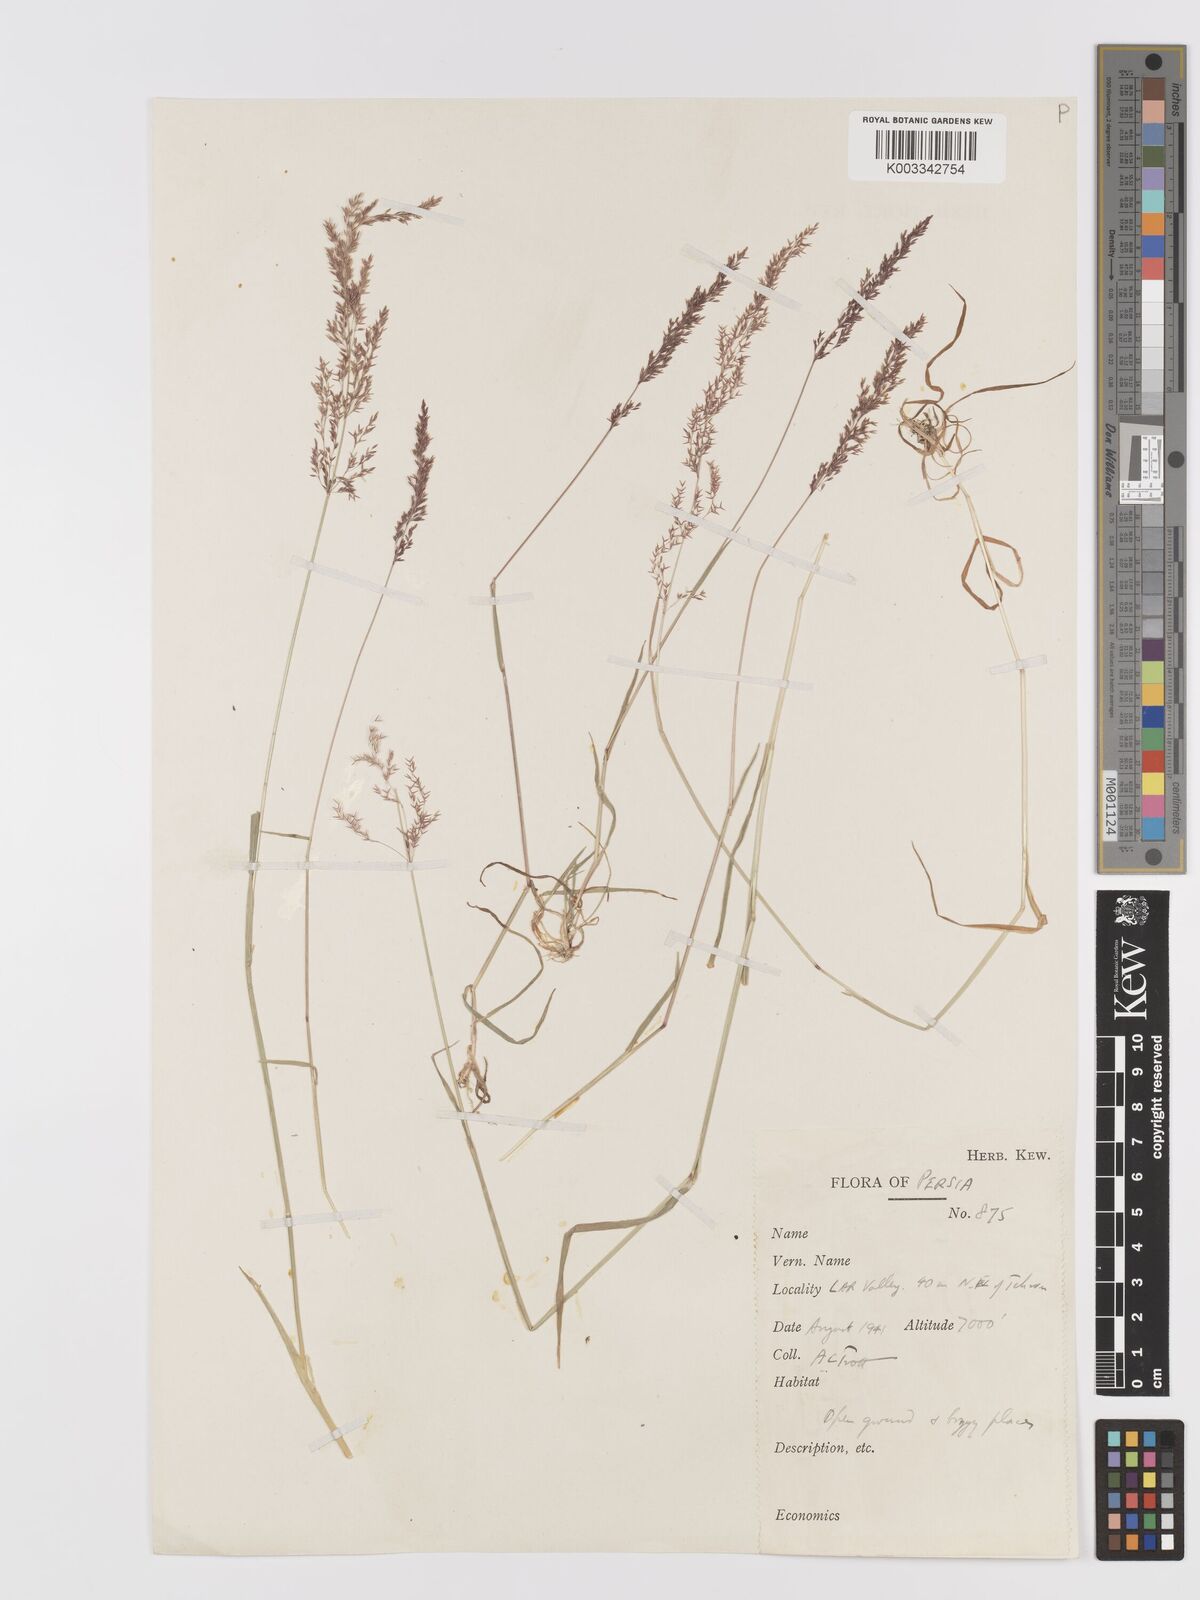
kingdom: Plantae
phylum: Tracheophyta
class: Liliopsida
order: Poales
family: Poaceae
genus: Agrostis
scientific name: Agrostis stolonifera
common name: Creeping bentgrass
